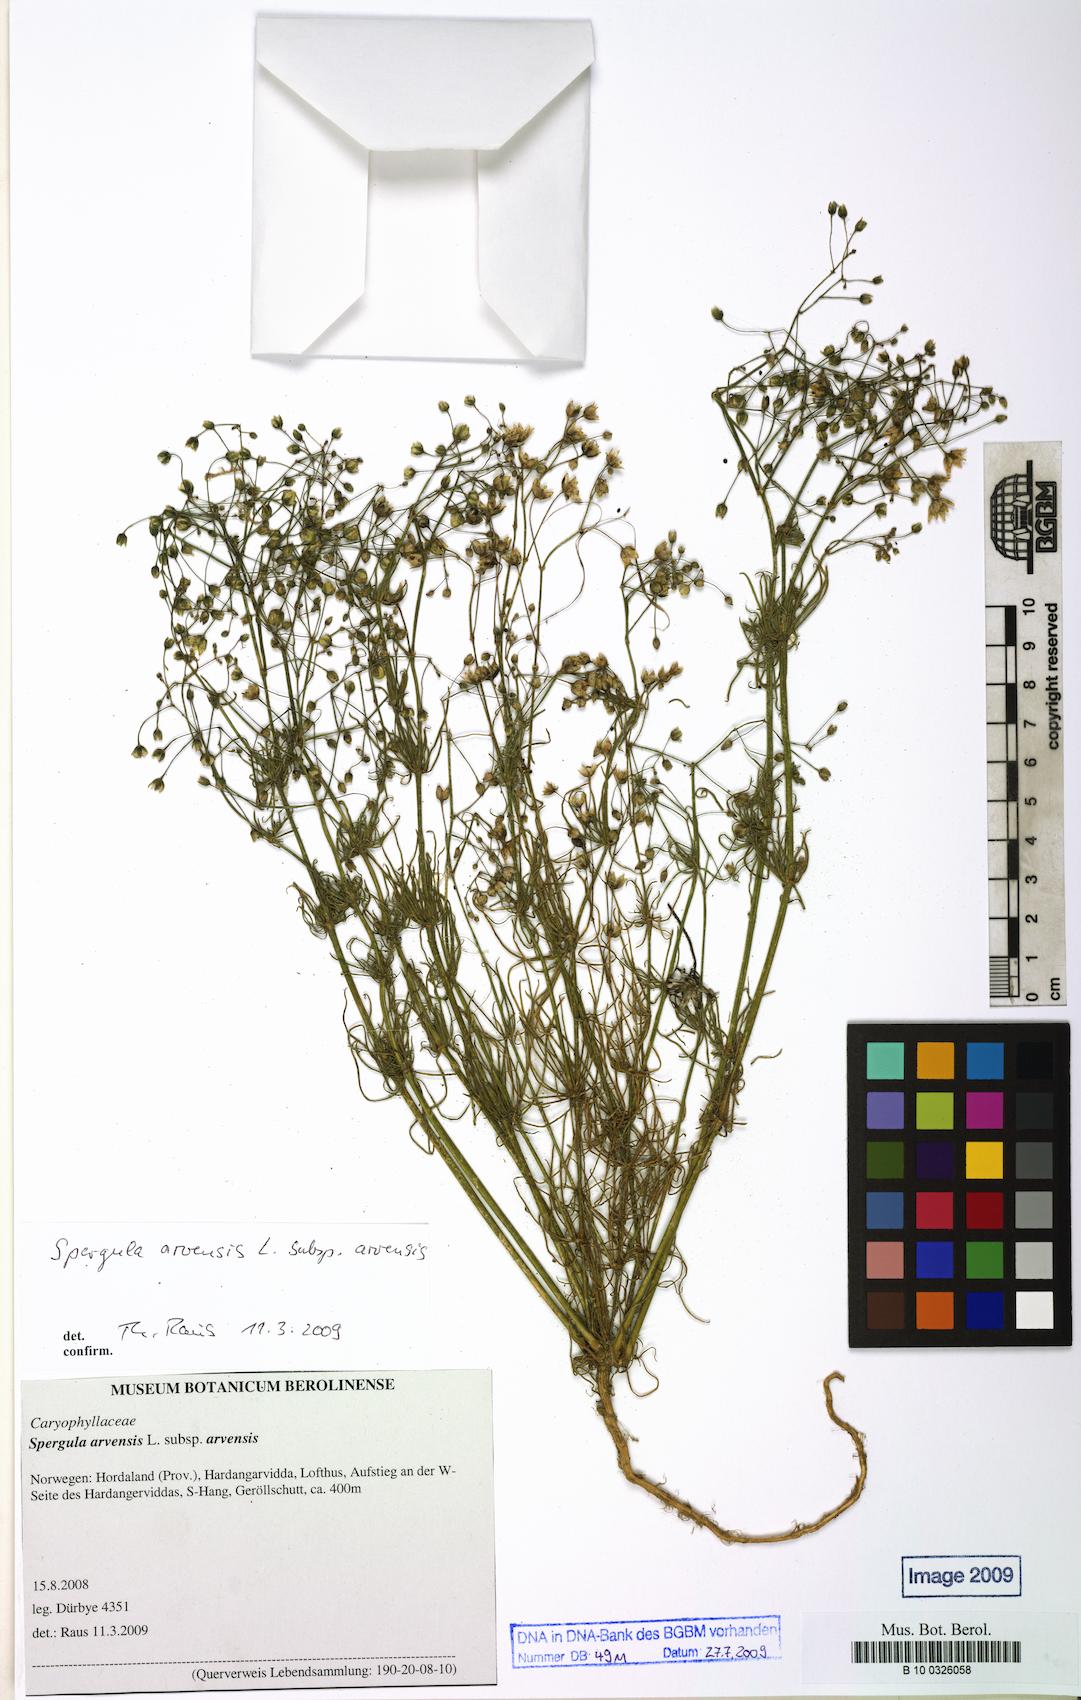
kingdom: Plantae
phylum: Tracheophyta
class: Magnoliopsida
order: Caryophyllales
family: Caryophyllaceae
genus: Spergula
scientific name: Spergula arvensis
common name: Corn spurrey
